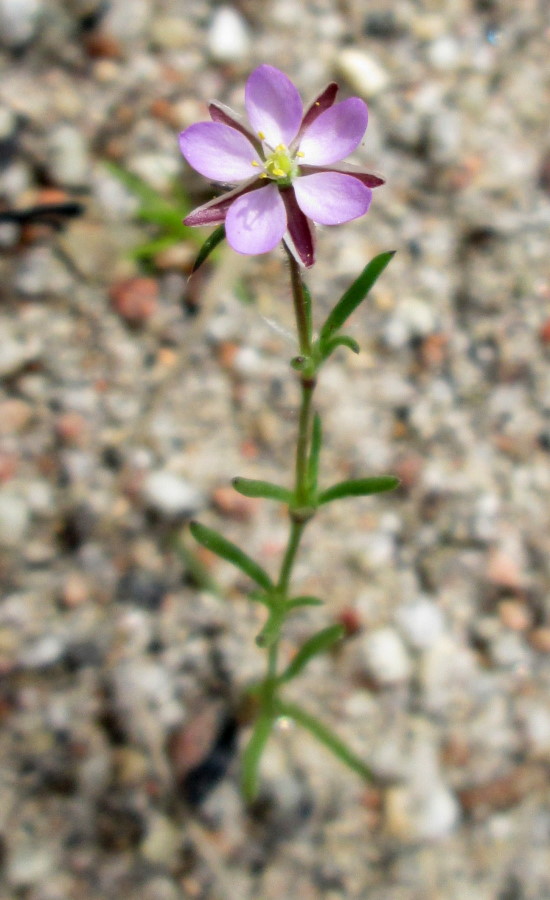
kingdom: Plantae
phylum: Tracheophyta
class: Magnoliopsida
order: Caryophyllales
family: Caryophyllaceae
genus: Spergularia
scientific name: Spergularia marina
